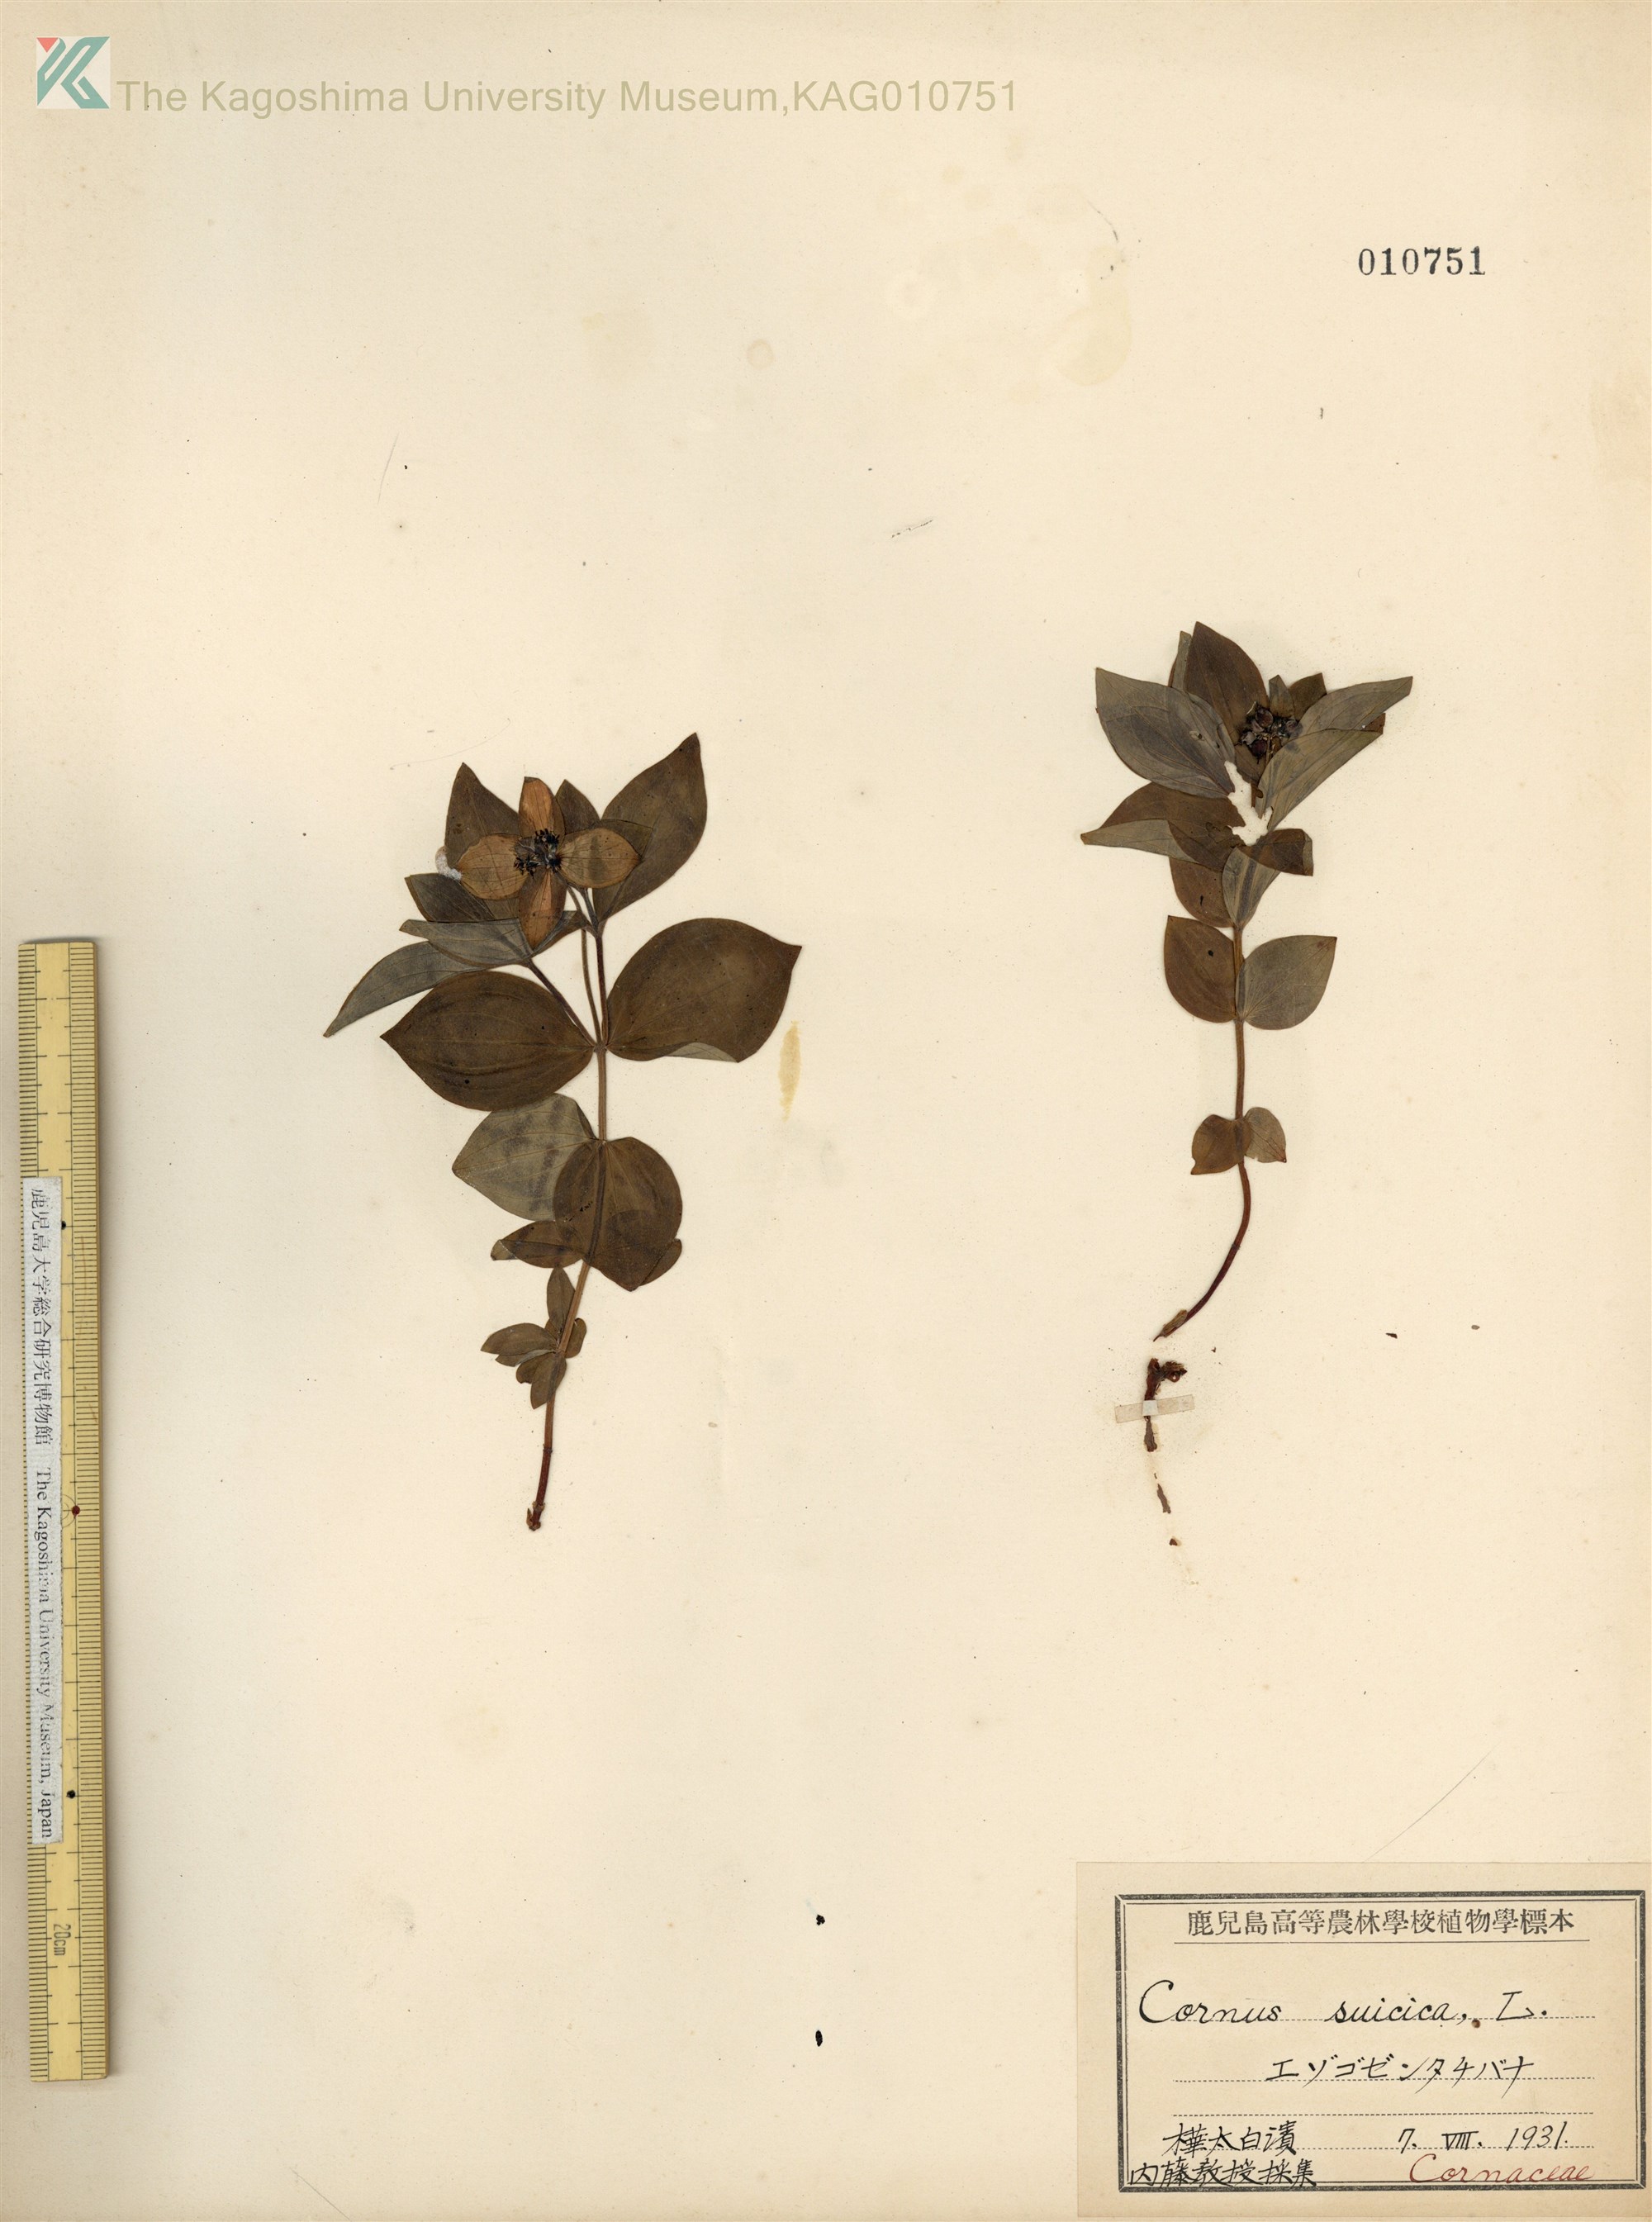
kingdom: Plantae
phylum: Tracheophyta
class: Magnoliopsida
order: Cornales
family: Cornaceae
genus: Cornus
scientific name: Cornus suecica
